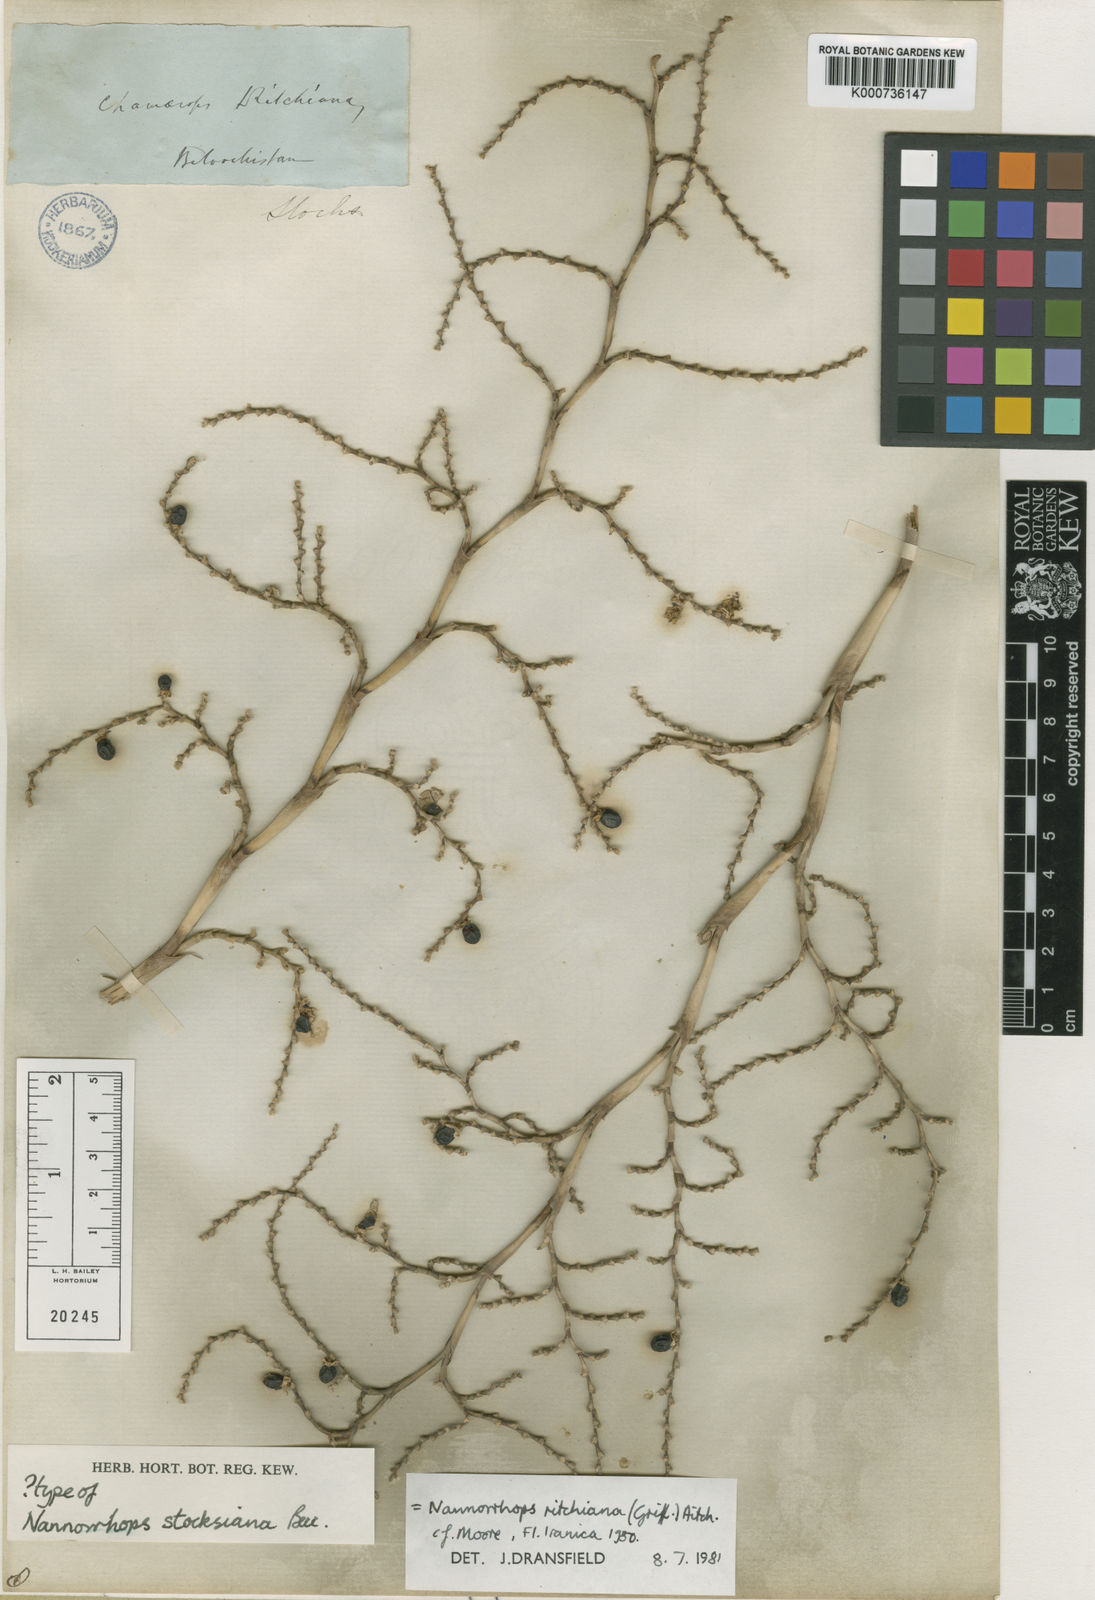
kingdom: Plantae
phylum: Tracheophyta
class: Liliopsida
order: Arecales
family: Arecaceae
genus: Nannorrhops
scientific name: Nannorrhops
